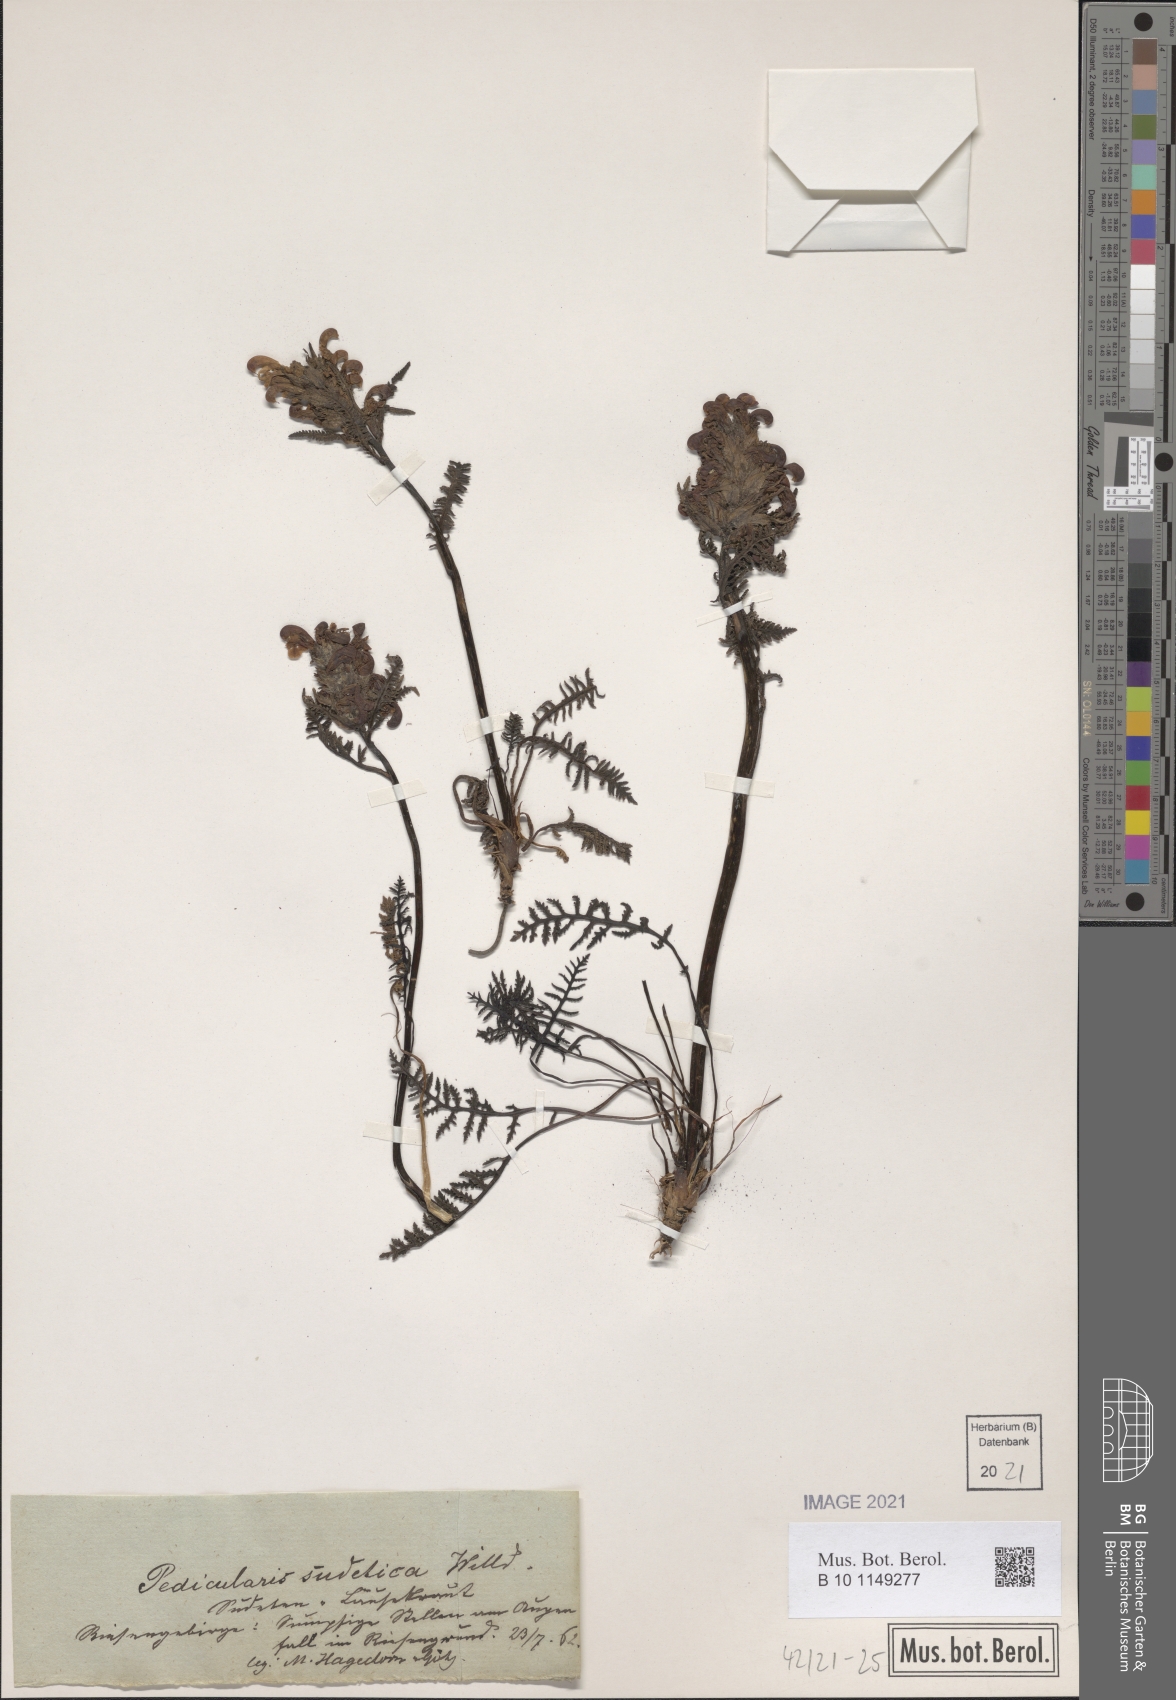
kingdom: Plantae
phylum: Tracheophyta
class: Magnoliopsida
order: Lamiales
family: Orobanchaceae
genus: Pedicularis
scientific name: Pedicularis sudetica
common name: Sudeten lousewort
